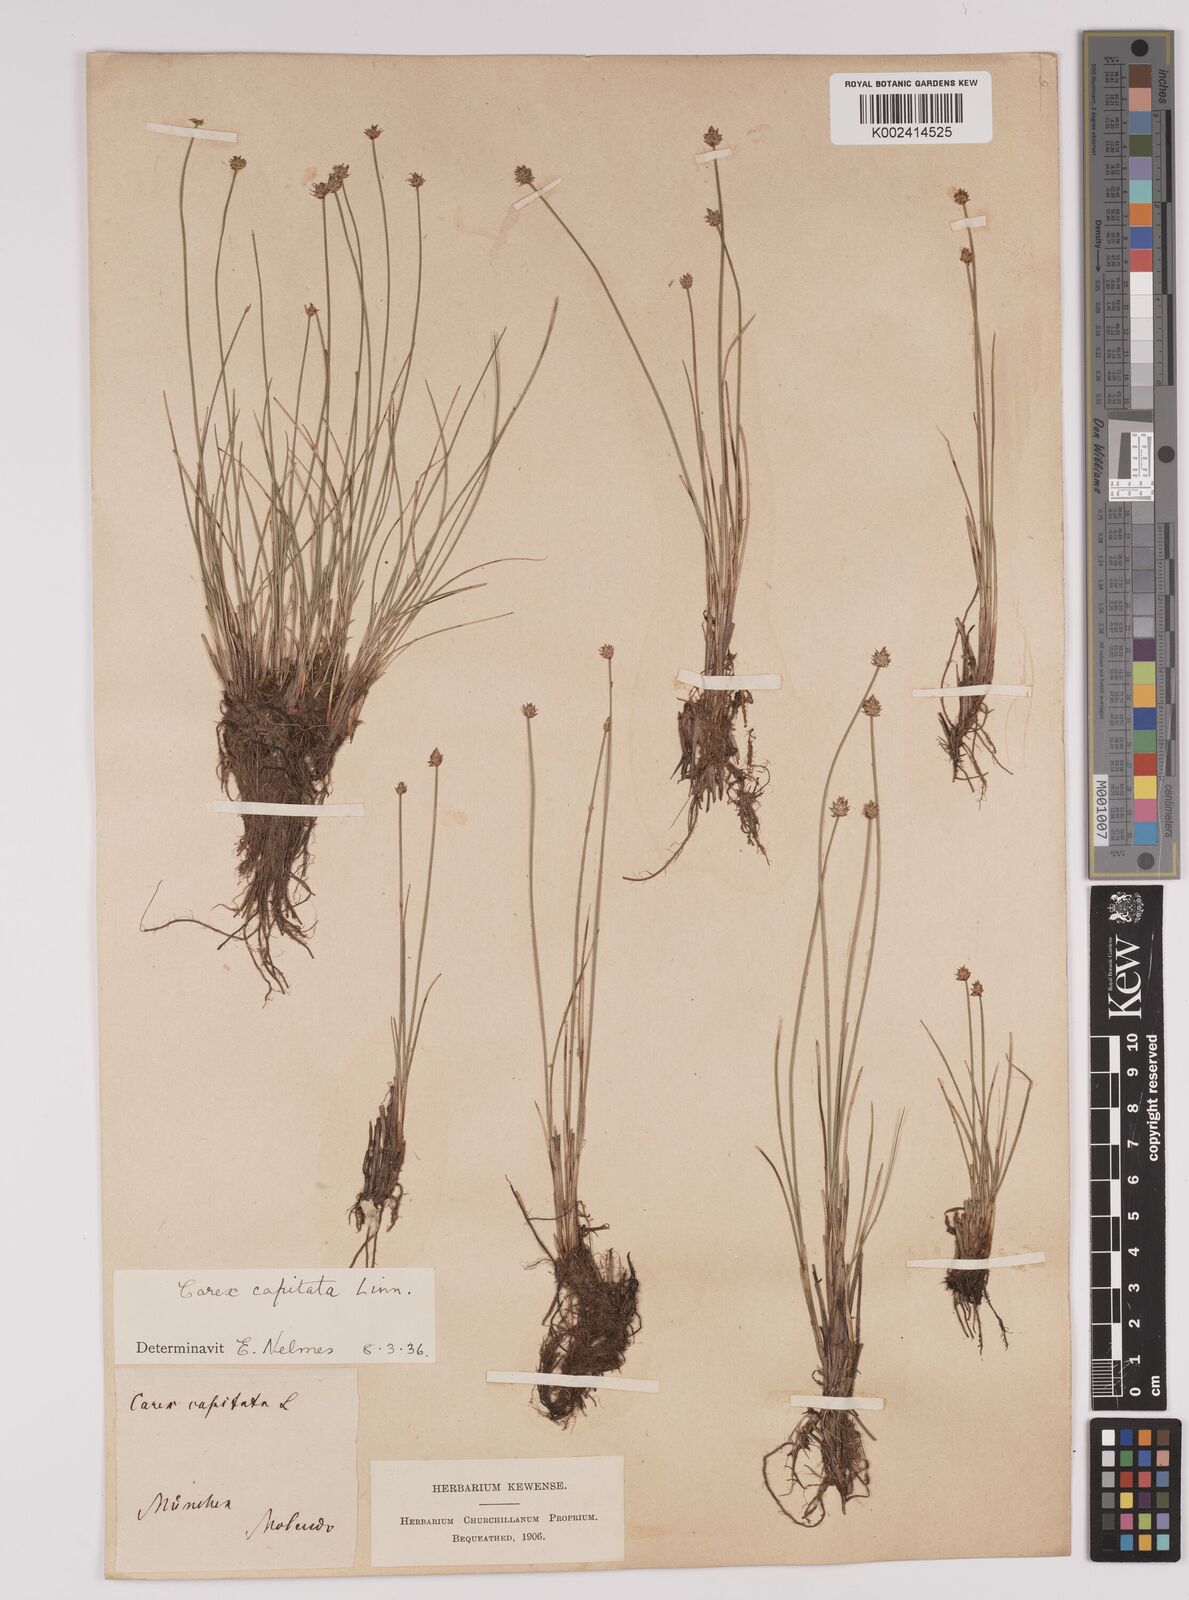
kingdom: Plantae
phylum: Tracheophyta
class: Liliopsida
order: Poales
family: Cyperaceae
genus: Carex
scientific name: Carex capitata
